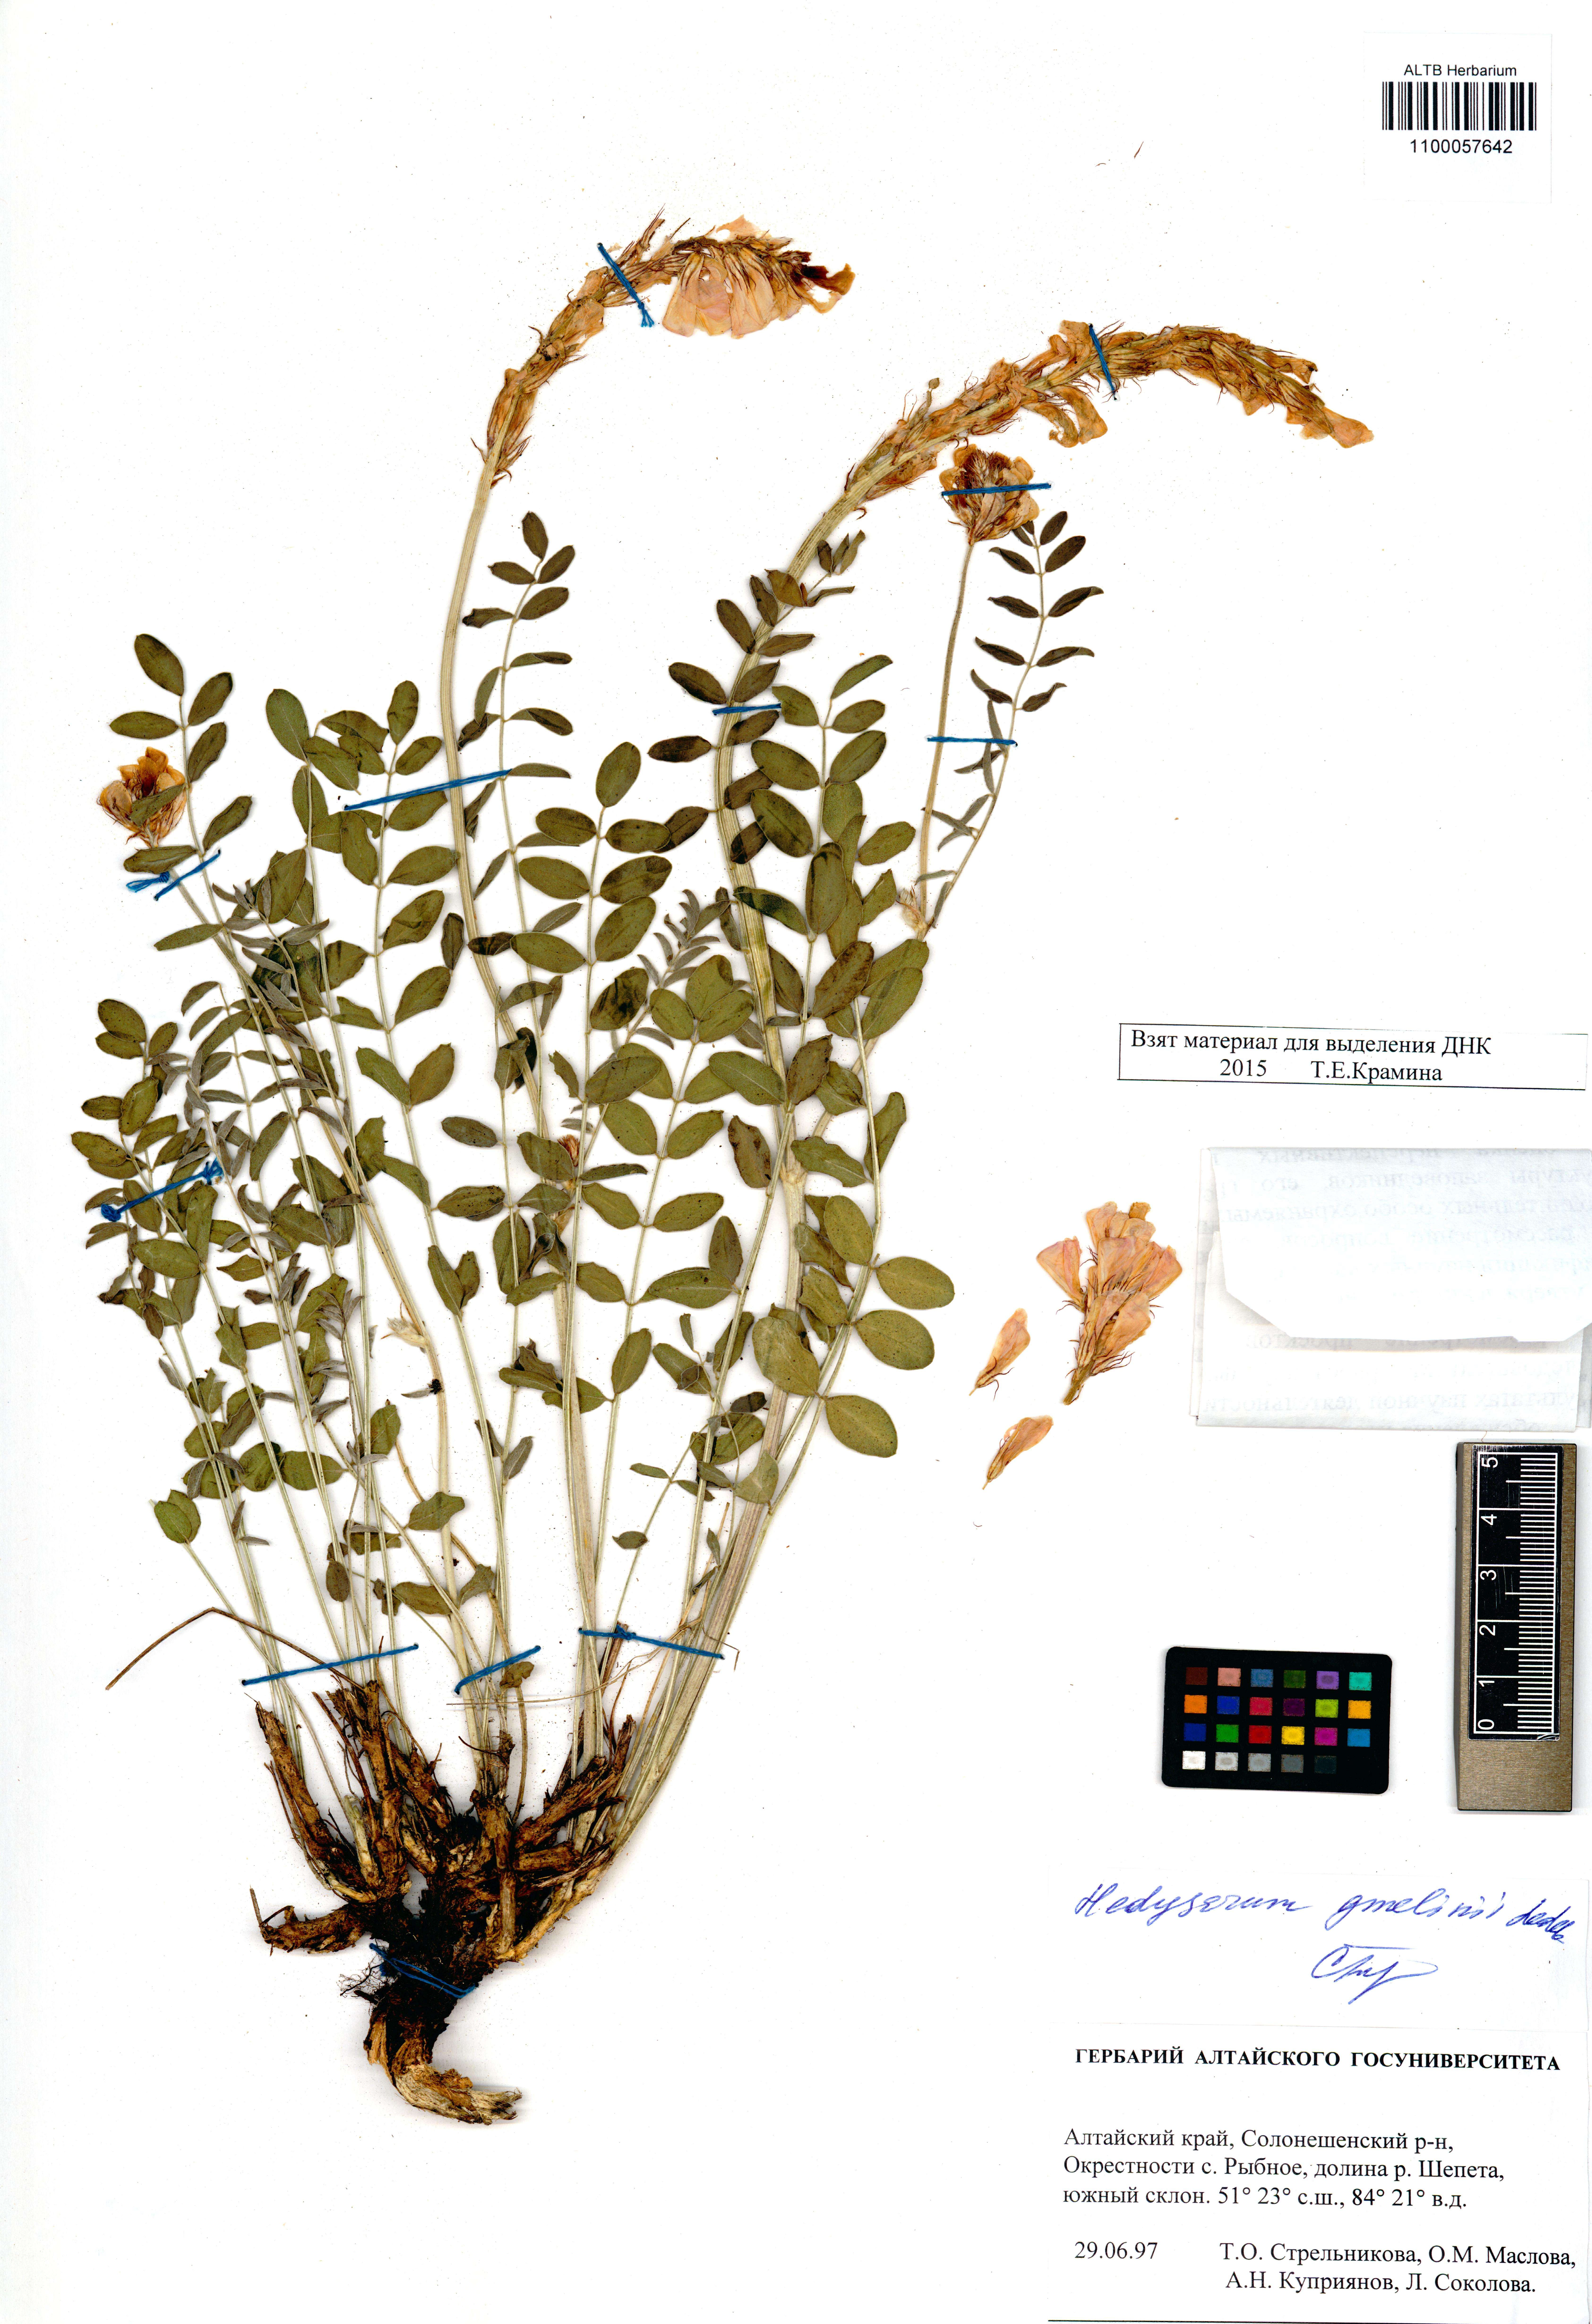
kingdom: Plantae
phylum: Tracheophyta
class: Magnoliopsida
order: Fabales
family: Fabaceae
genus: Hedysarum
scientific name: Hedysarum gmelinii
